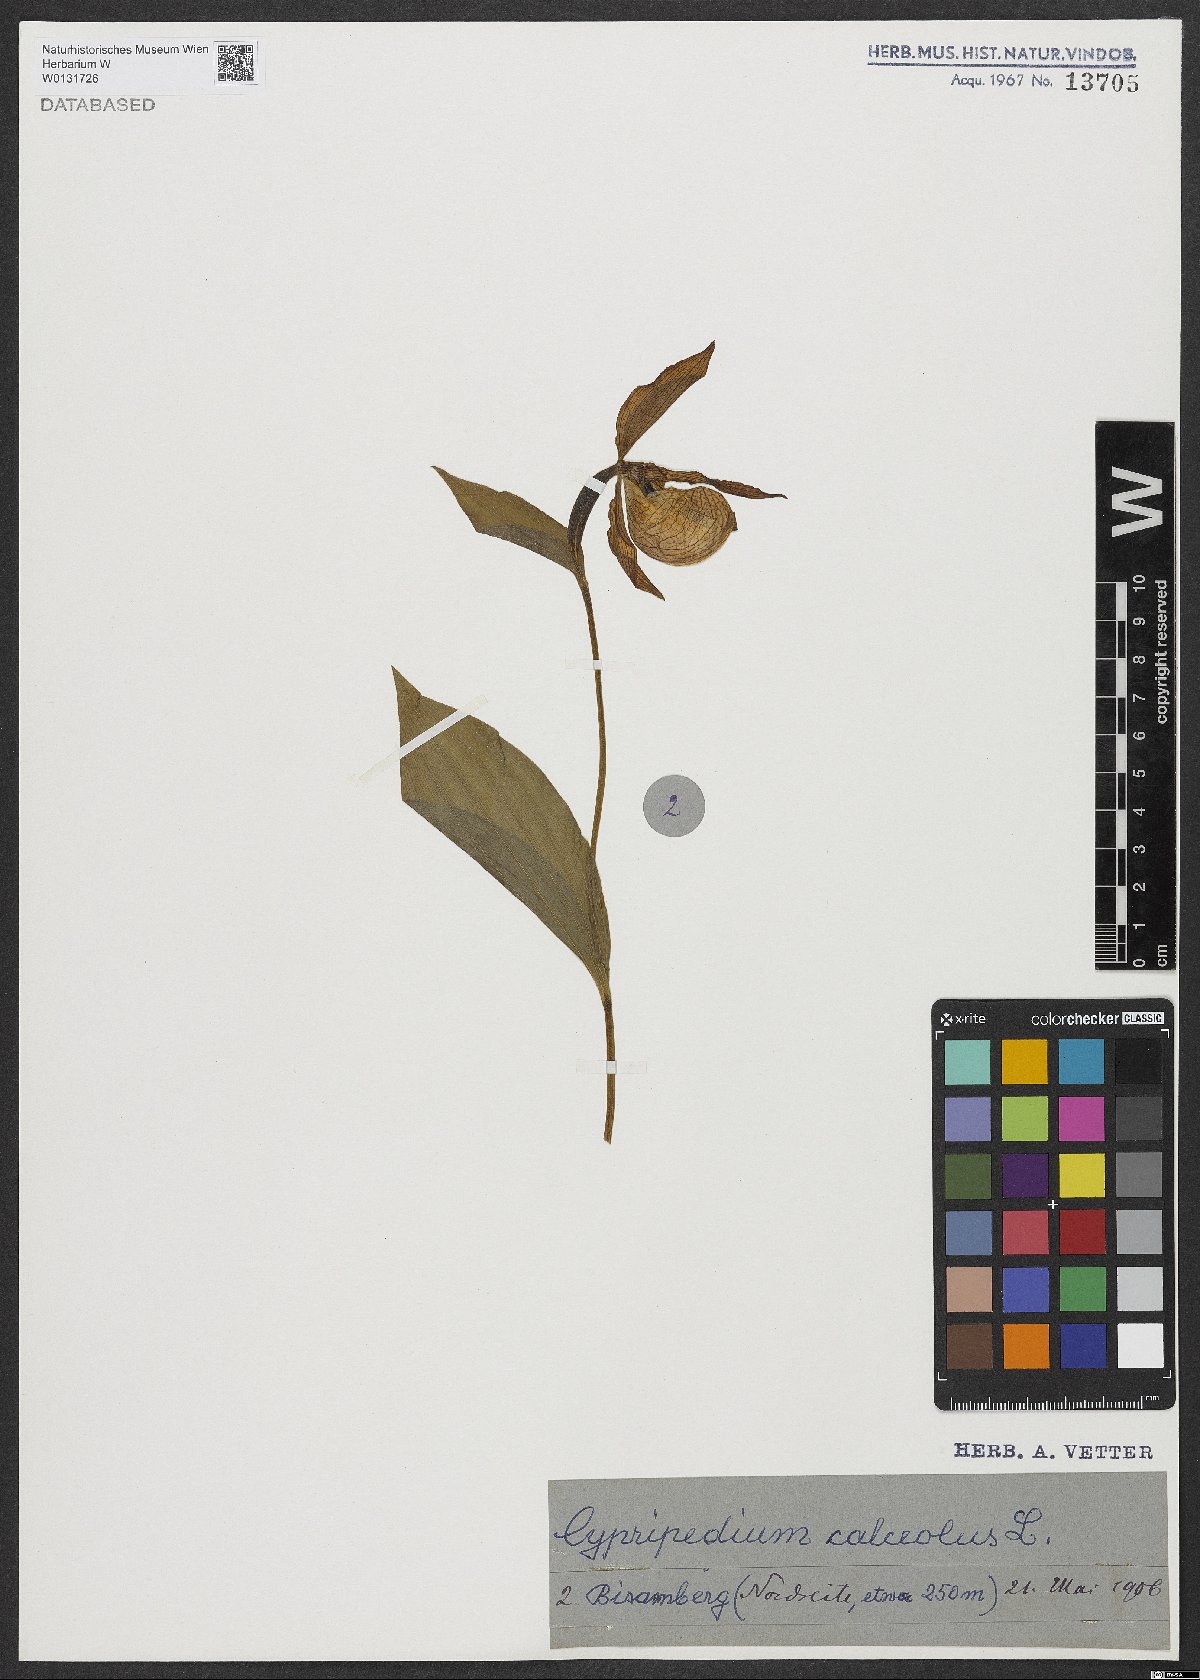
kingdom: Plantae
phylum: Tracheophyta
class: Liliopsida
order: Asparagales
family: Orchidaceae
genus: Cypripedium
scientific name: Cypripedium calceolus
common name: Lady's-slipper
